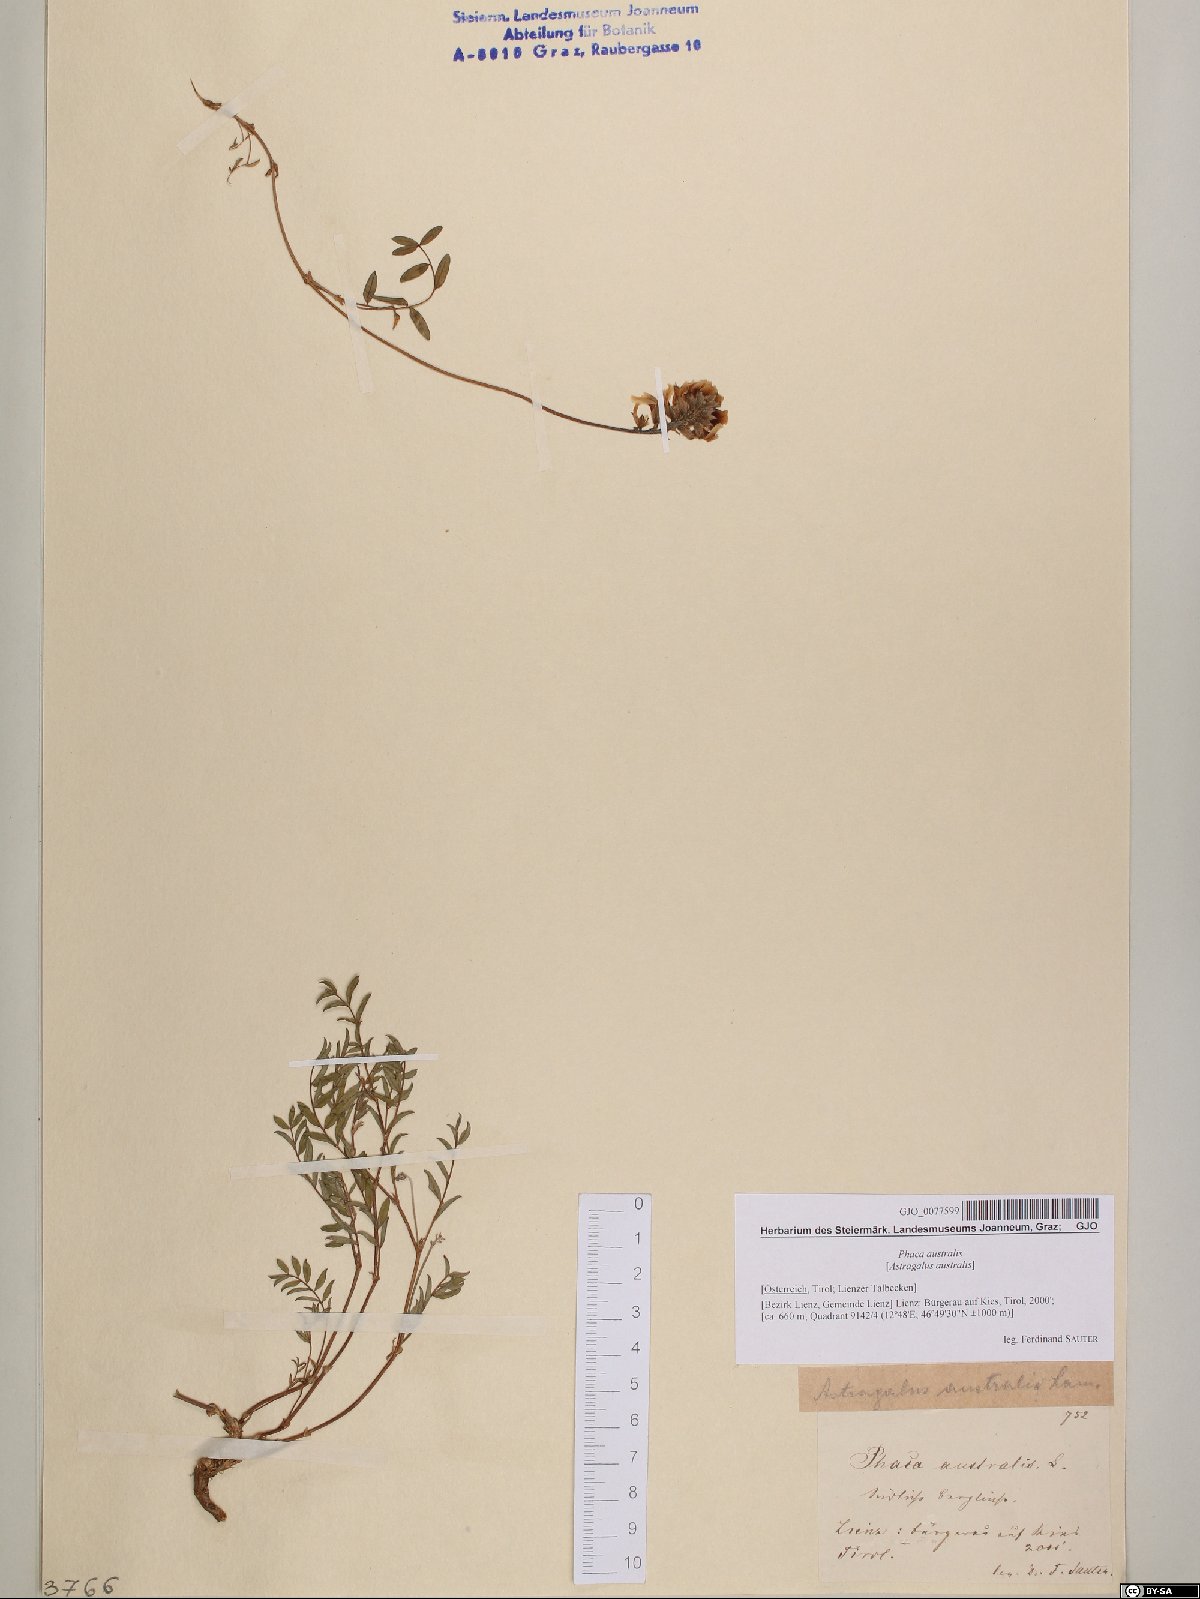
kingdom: Plantae
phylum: Tracheophyta
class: Magnoliopsida
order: Fabales
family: Fabaceae
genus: Astragalus
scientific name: Astragalus australis
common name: Indian milk-vetch
